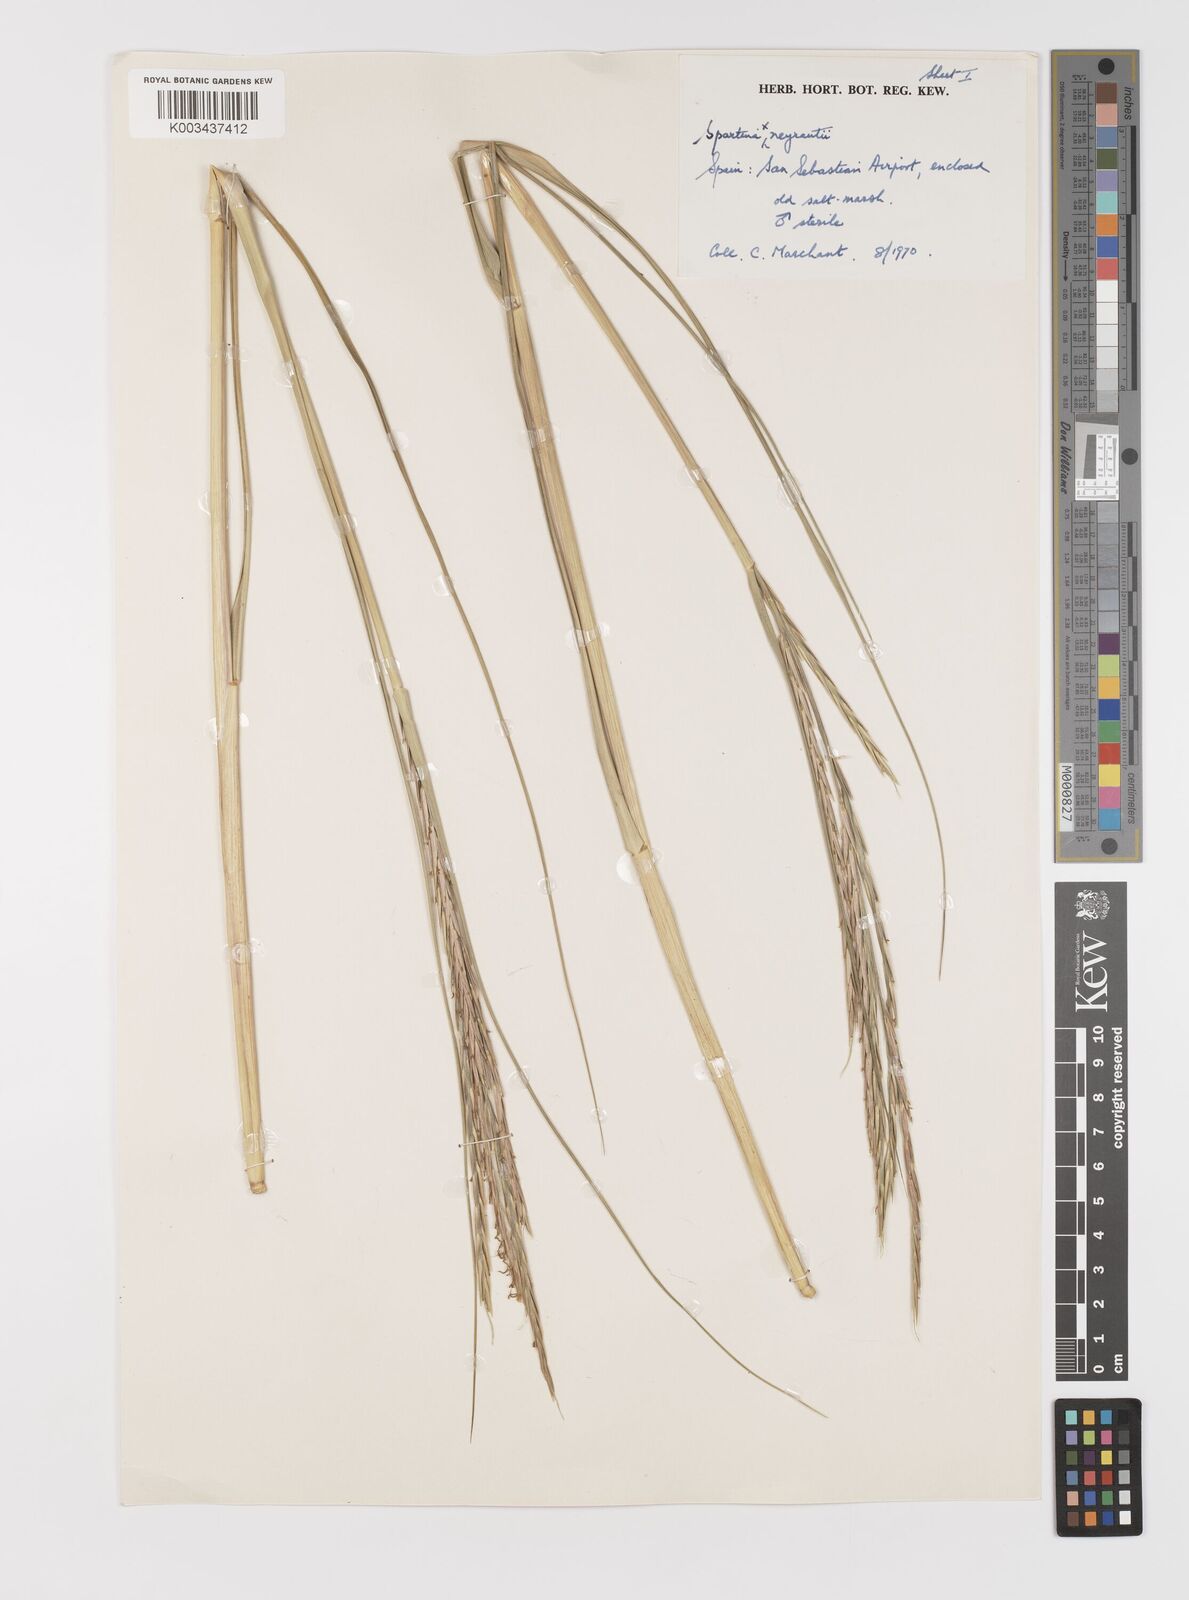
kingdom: Plantae
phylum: Tracheophyta
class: Liliopsida
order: Poales
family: Poaceae
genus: Sporobolus
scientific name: Sporobolus townsendii
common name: Townsend's cordgrass
